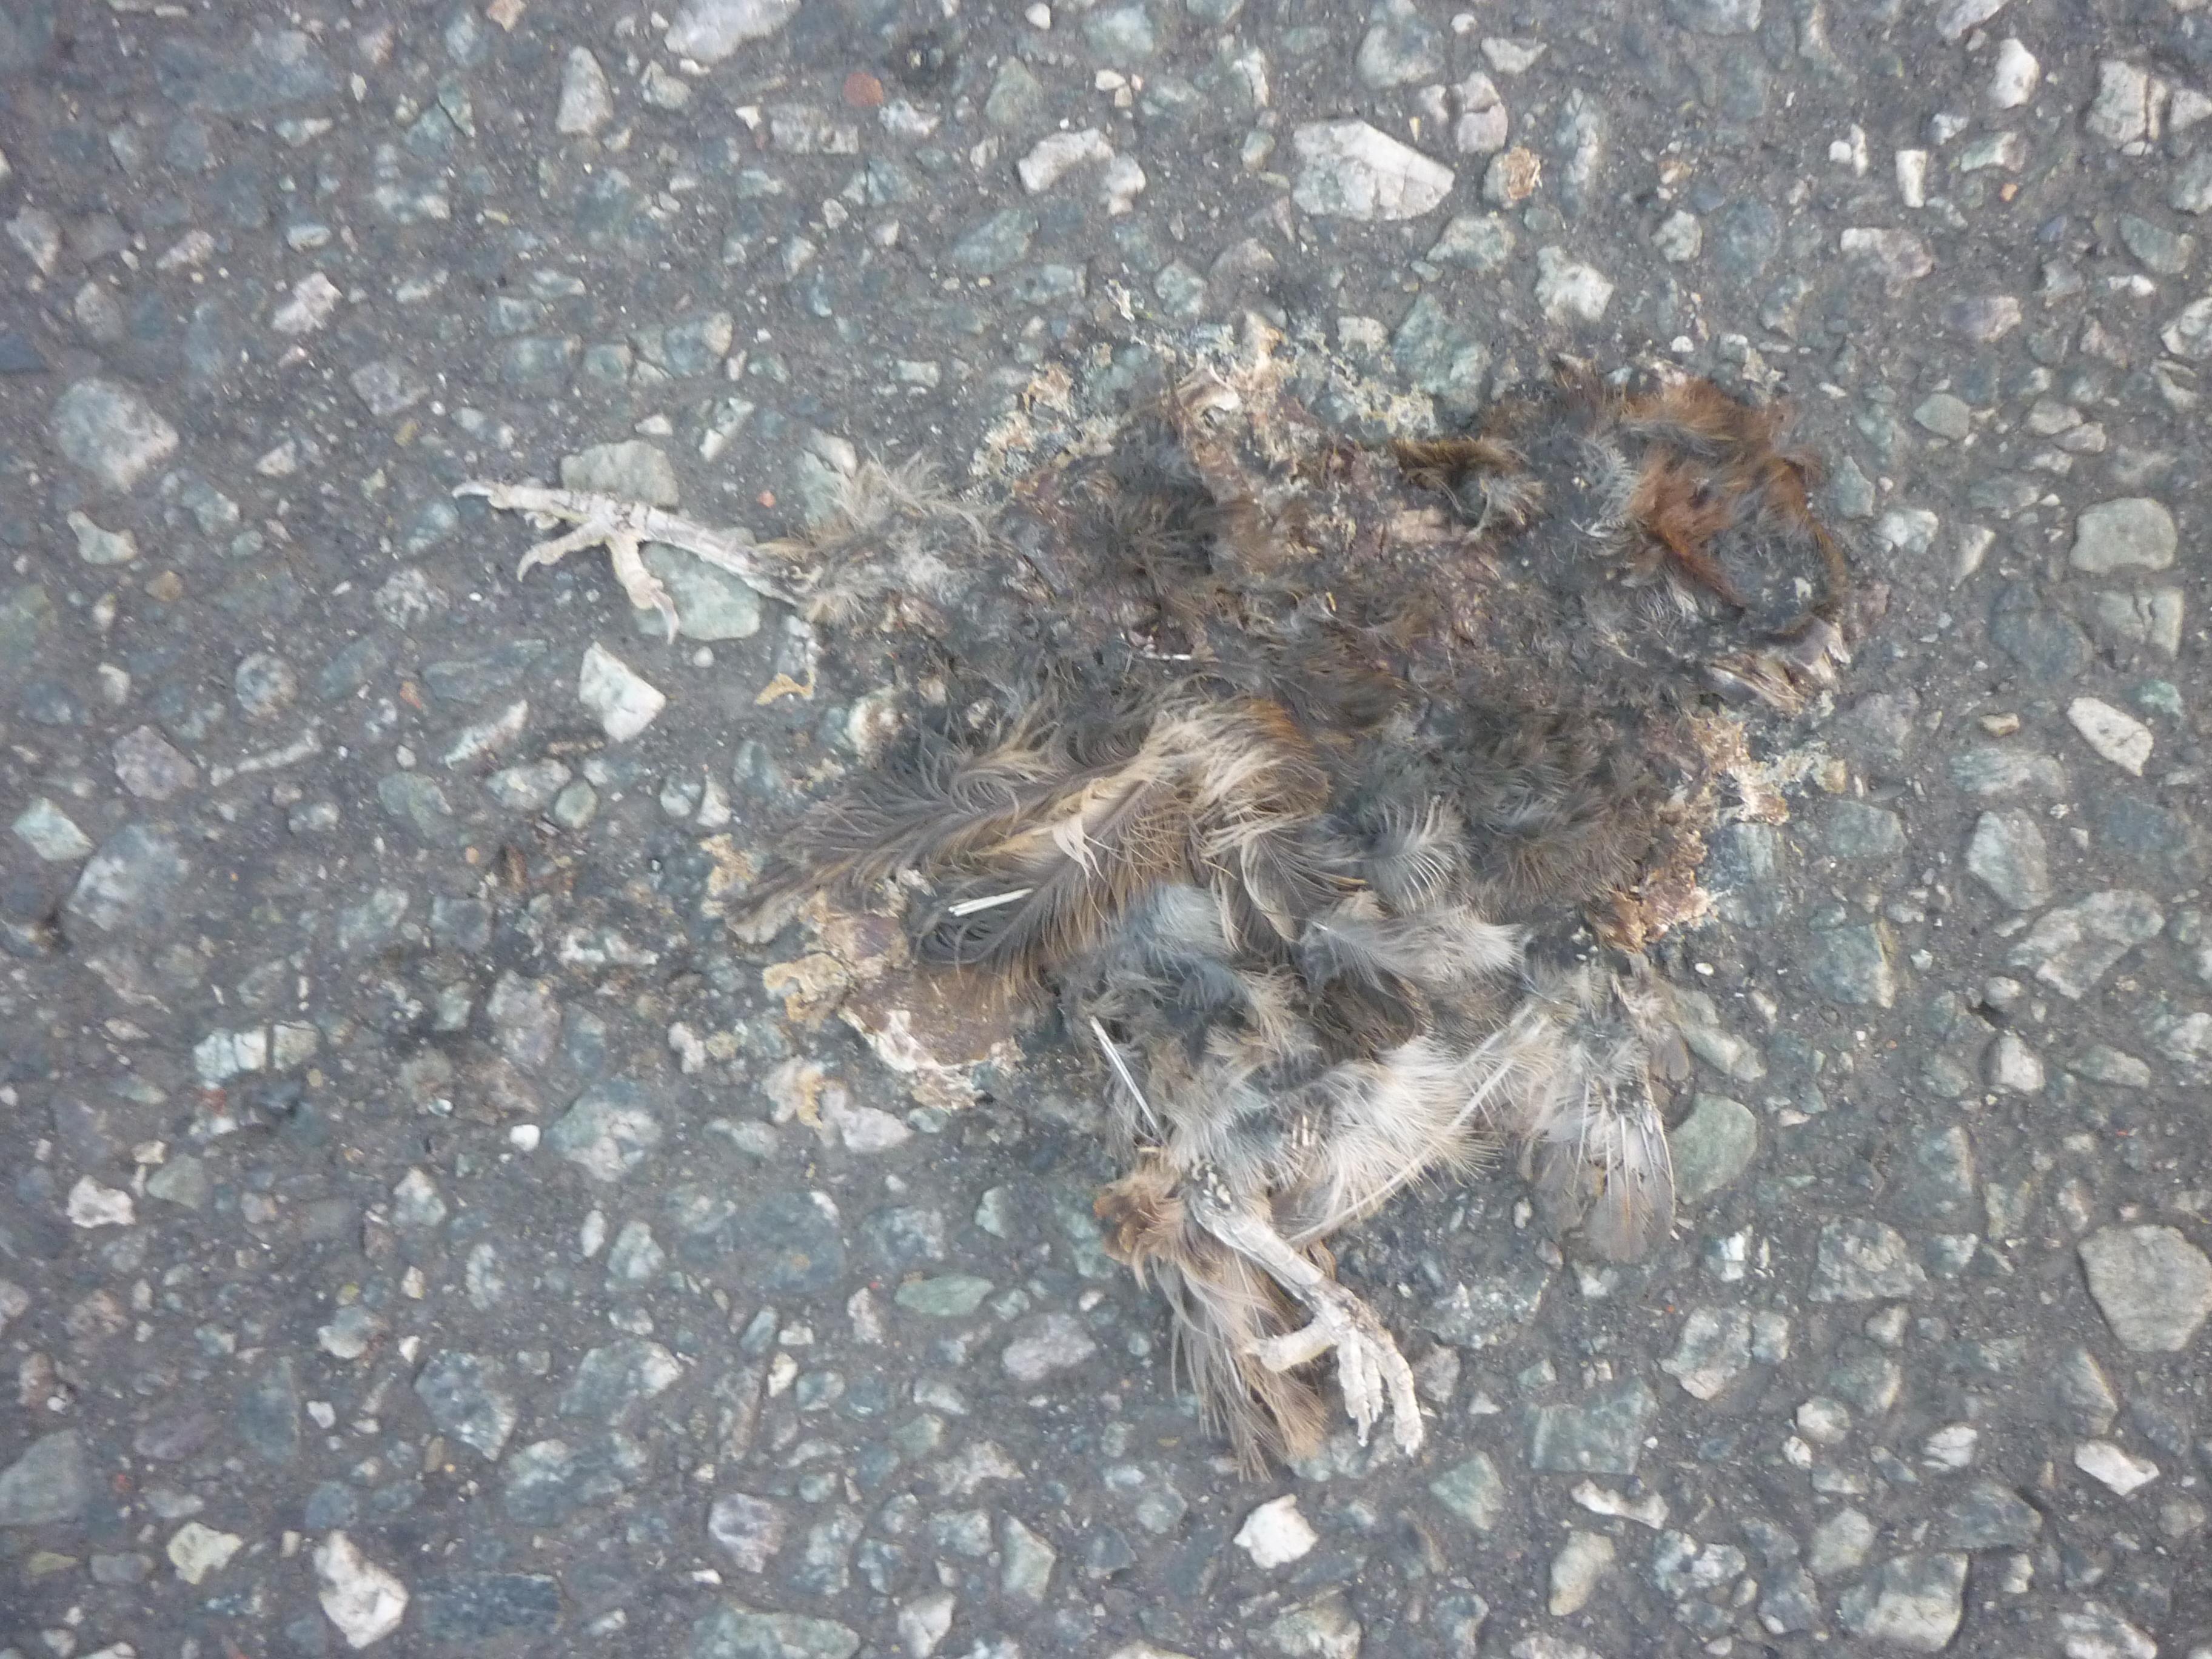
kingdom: Animalia
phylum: Chordata
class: Aves
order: Passeriformes
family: Passeridae
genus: Passer
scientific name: Passer domesticus
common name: House sparrow
